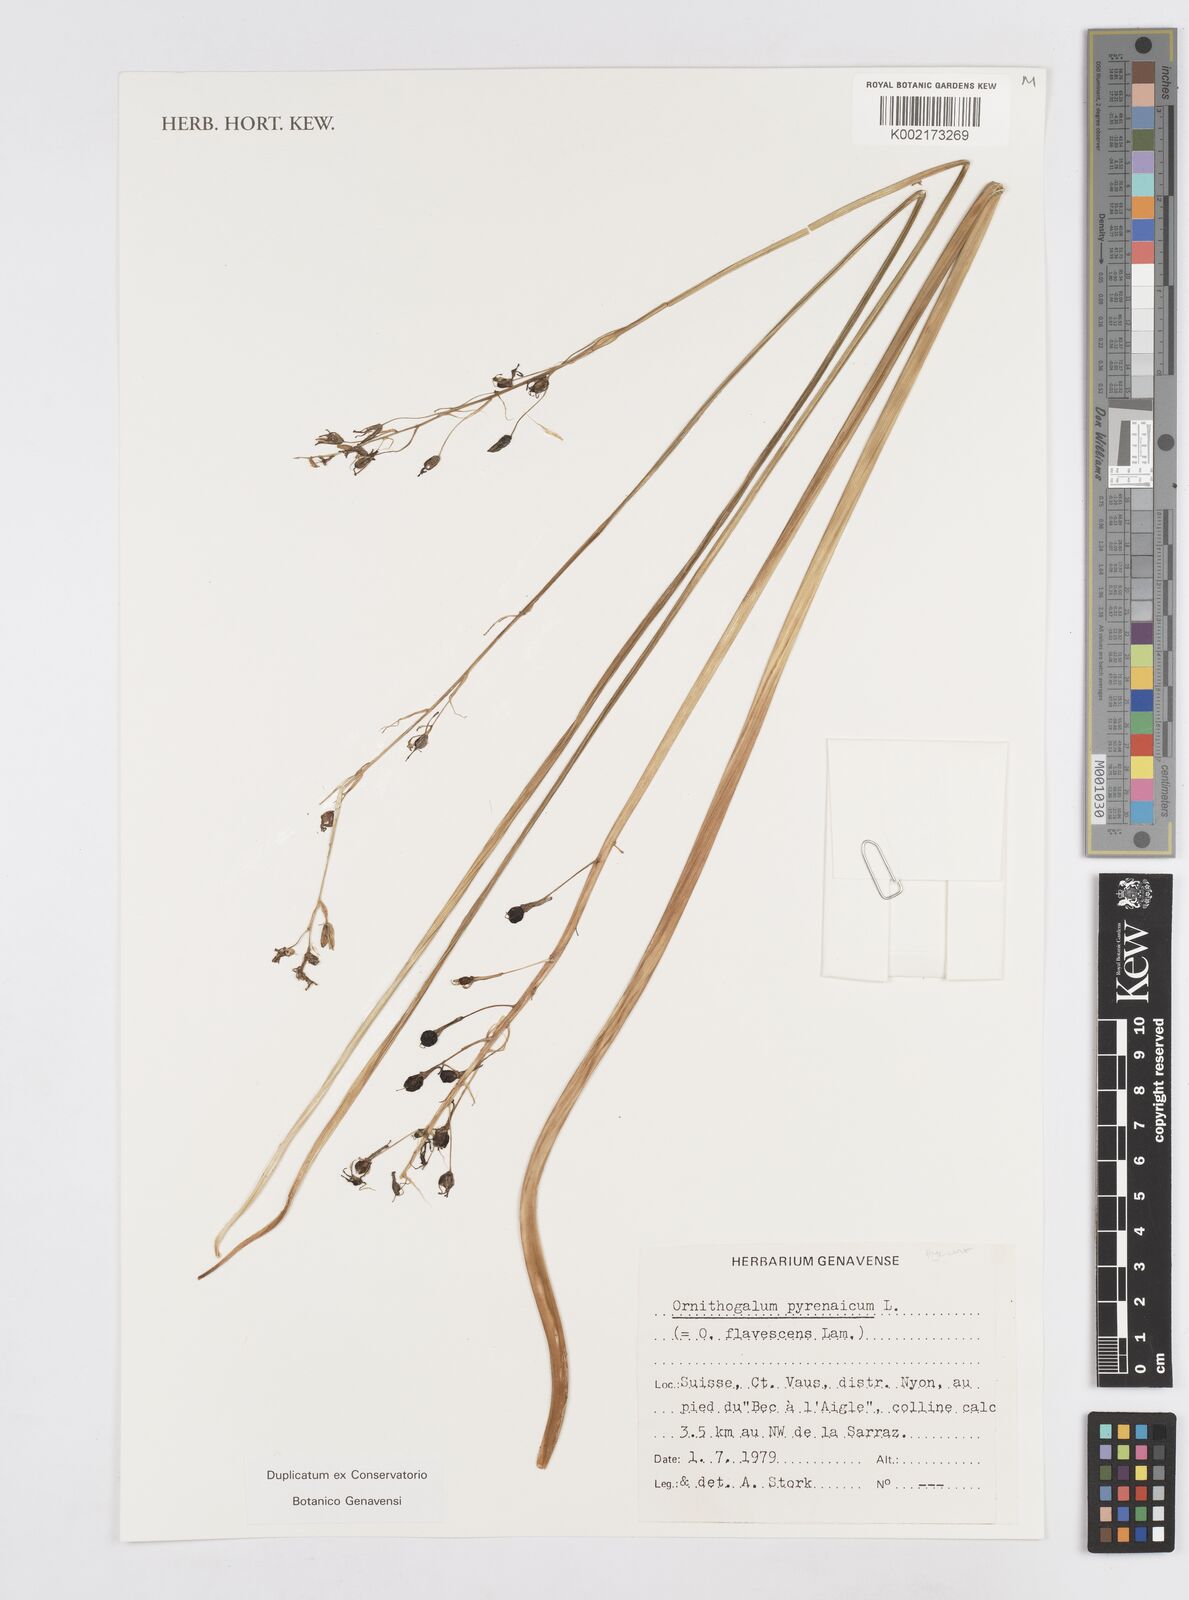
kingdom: Plantae
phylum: Tracheophyta
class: Liliopsida
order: Asparagales
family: Asparagaceae
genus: Ornithogalum
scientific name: Ornithogalum pyrenaicum
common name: Spiked star-of-bethlehem
